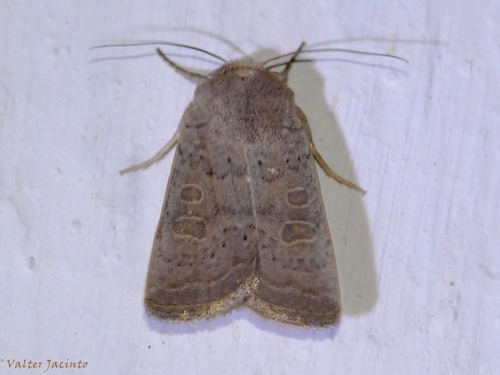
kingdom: Animalia
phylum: Arthropoda
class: Insecta
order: Lepidoptera
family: Noctuidae
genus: Hoplodrina
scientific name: Hoplodrina blanda
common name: Rustic
